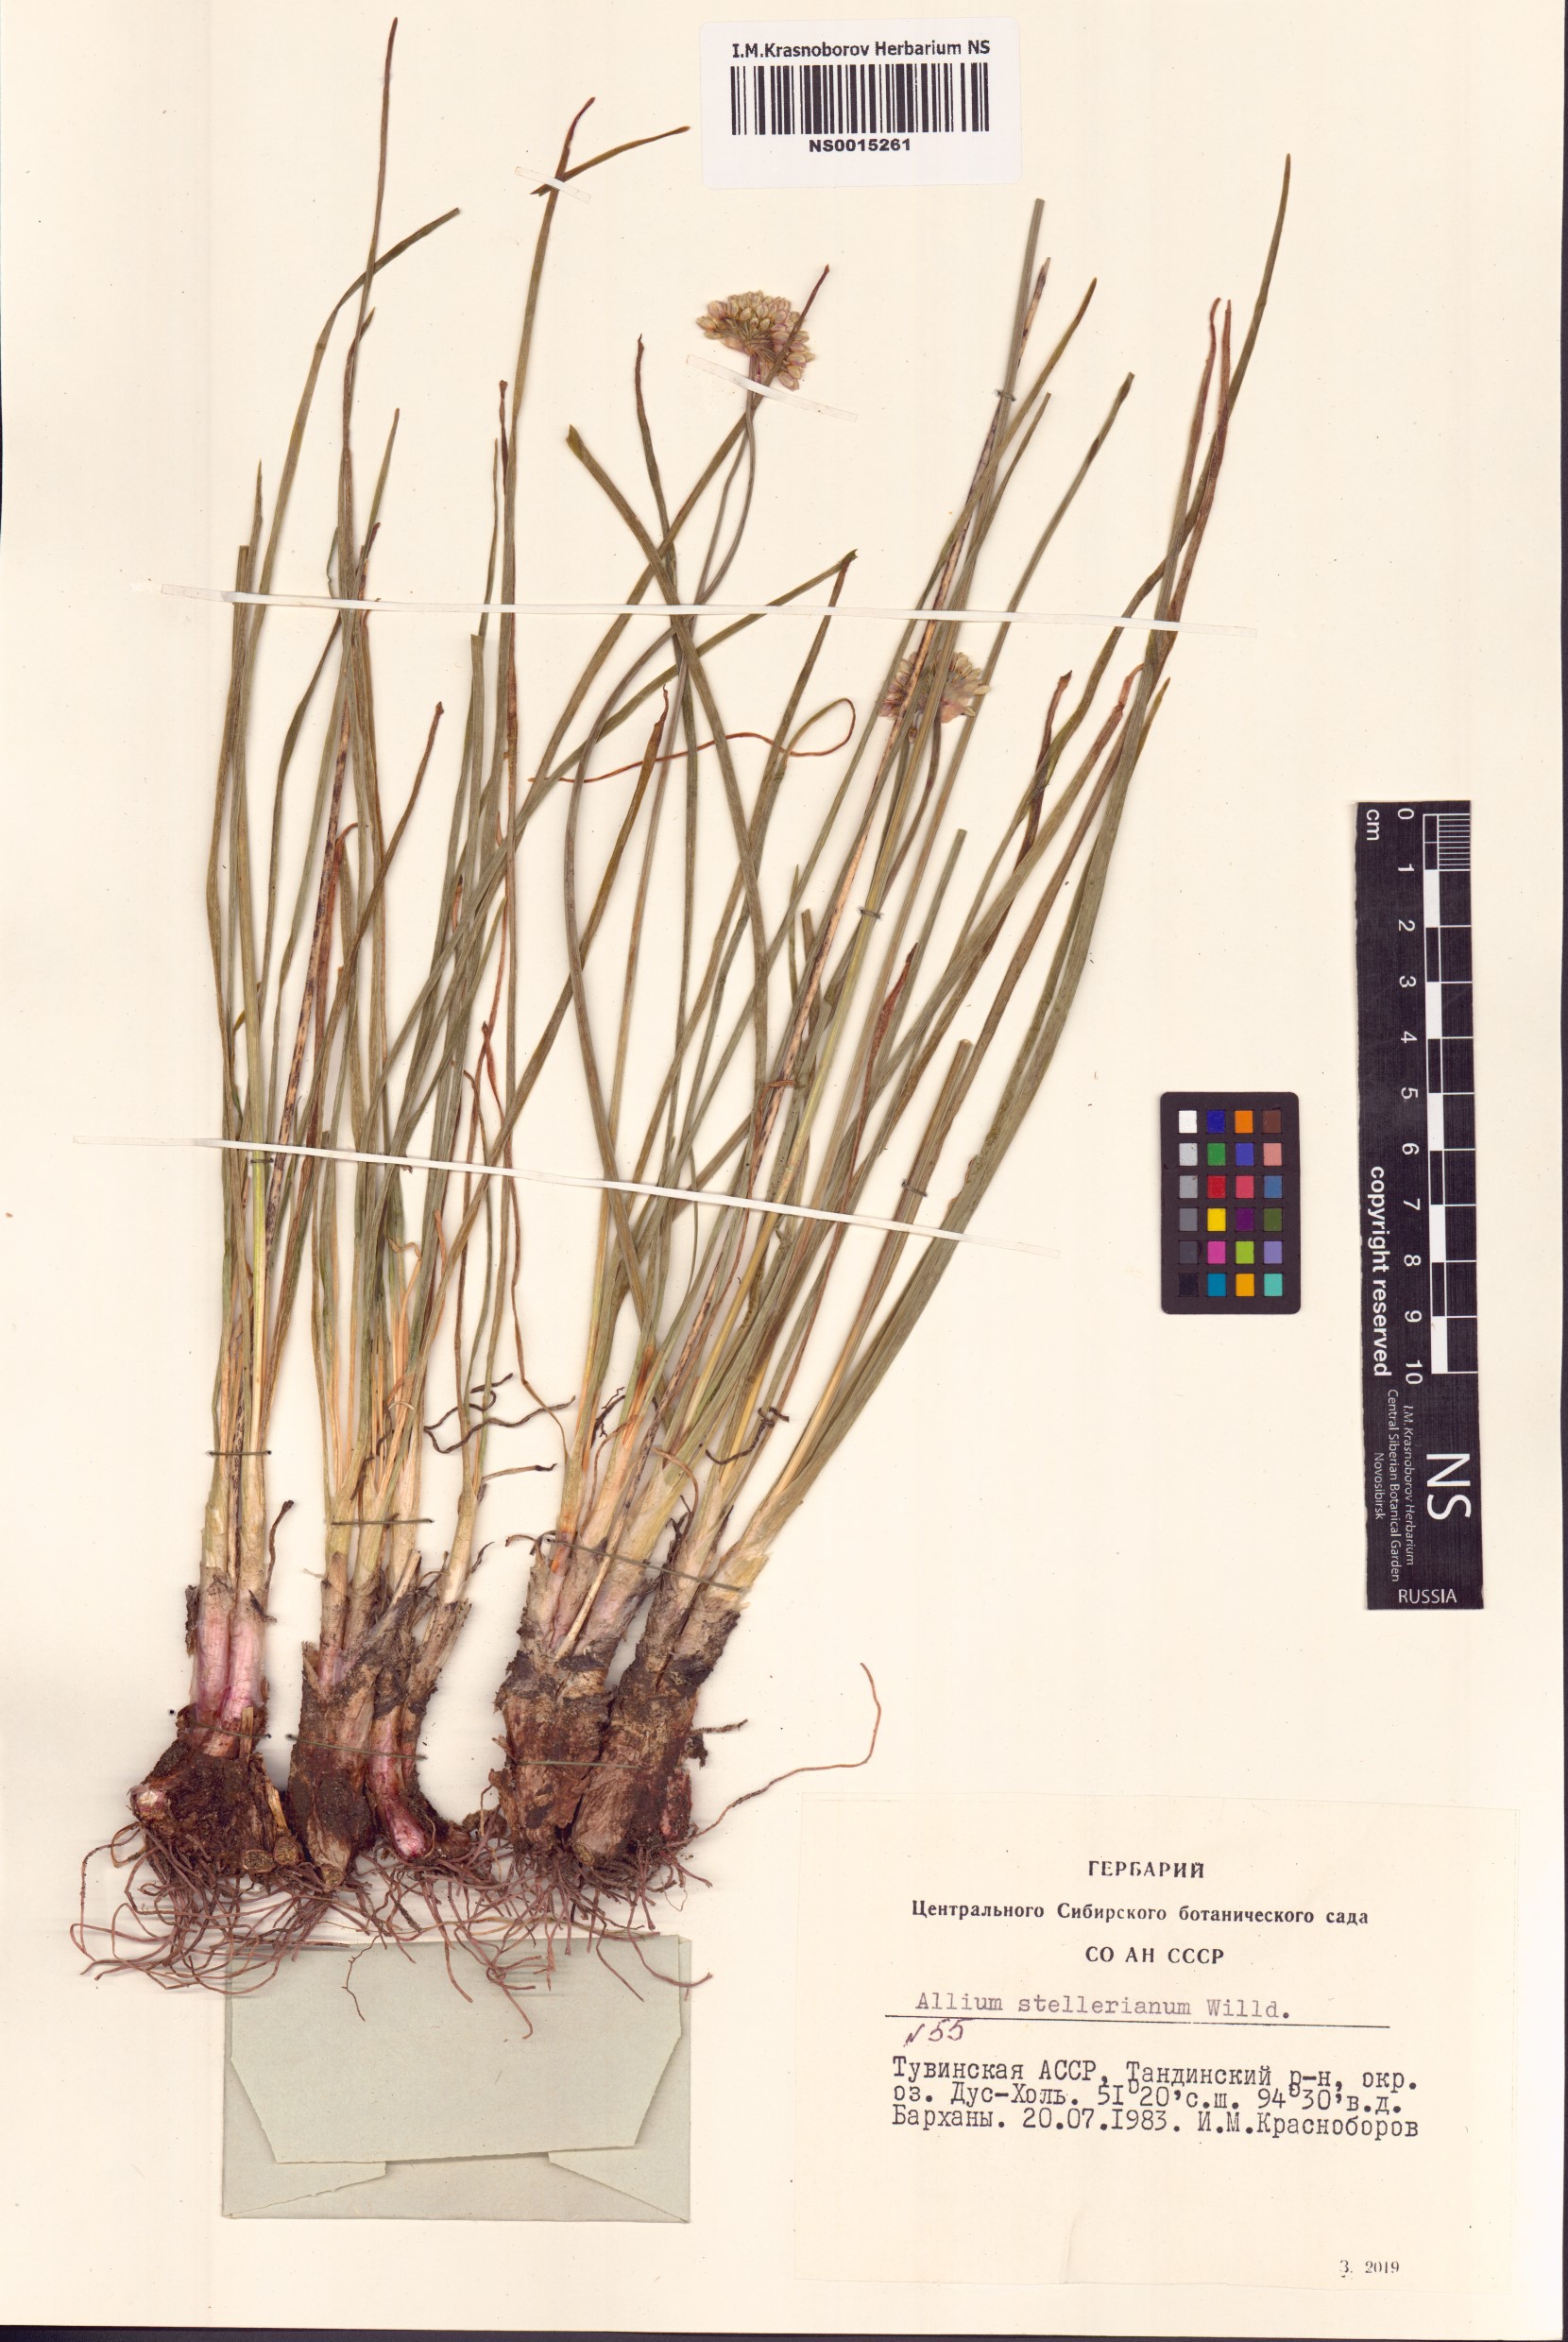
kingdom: Plantae
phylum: Tracheophyta
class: Liliopsida
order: Asparagales
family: Amaryllidaceae
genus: Allium
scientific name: Allium stellerianum
